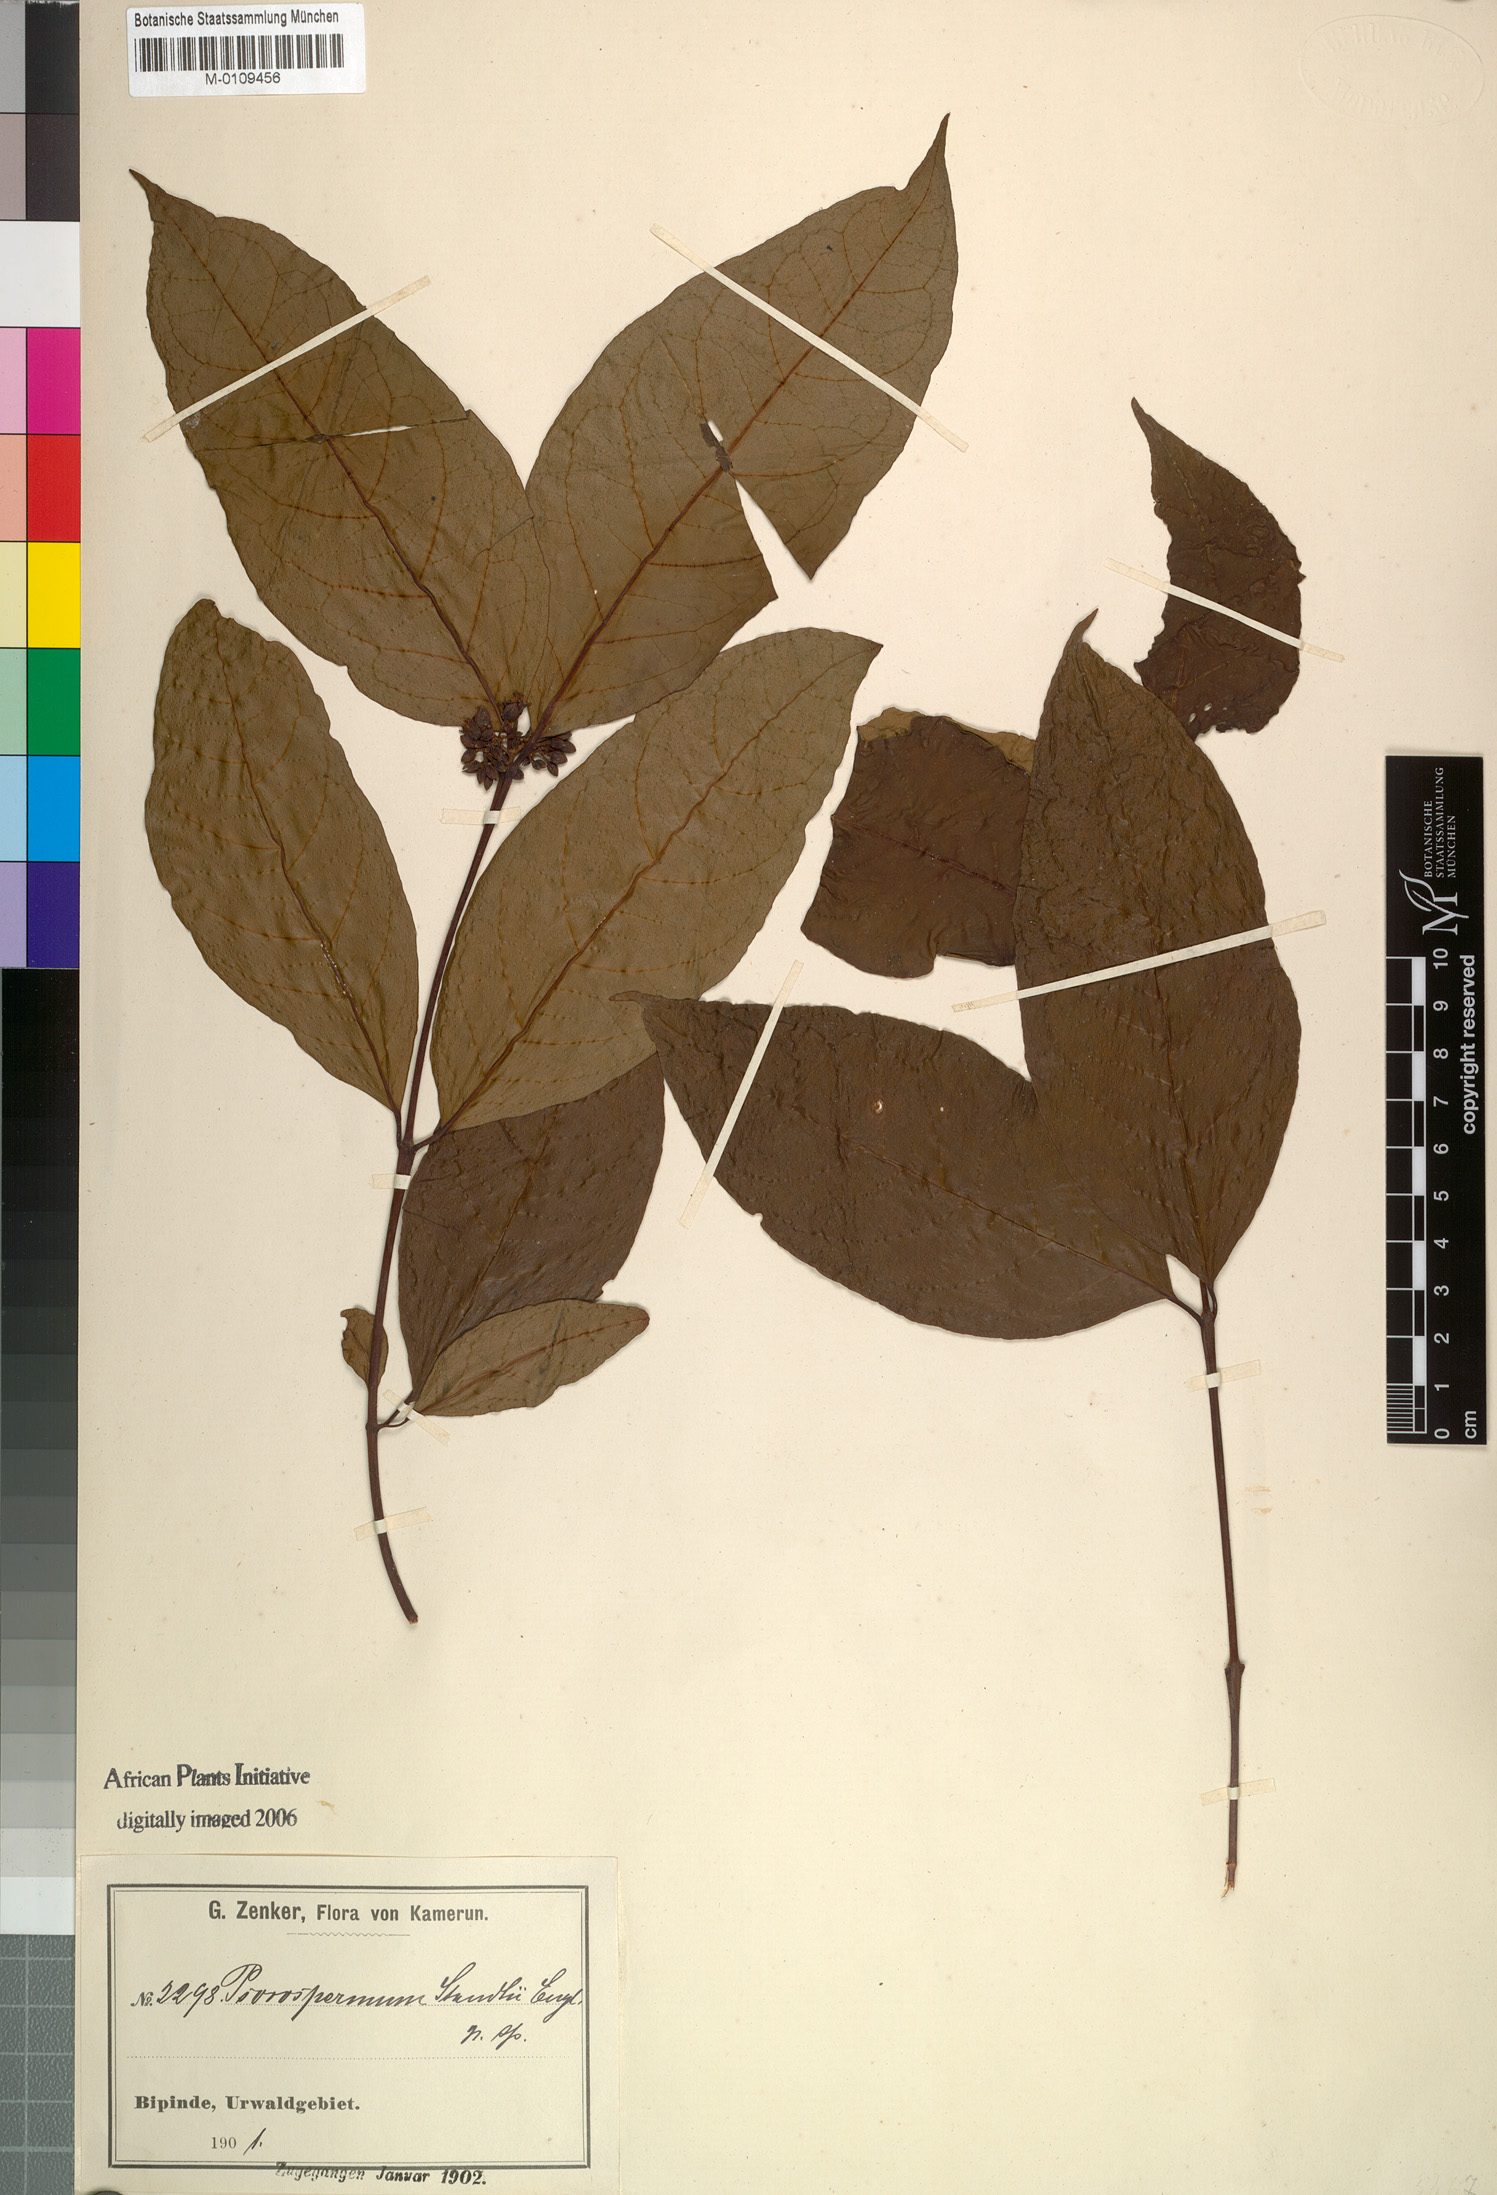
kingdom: Plantae
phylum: Tracheophyta
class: Magnoliopsida
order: Malpighiales
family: Hypericaceae
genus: Psorospermum
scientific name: Psorospermum staudtii
